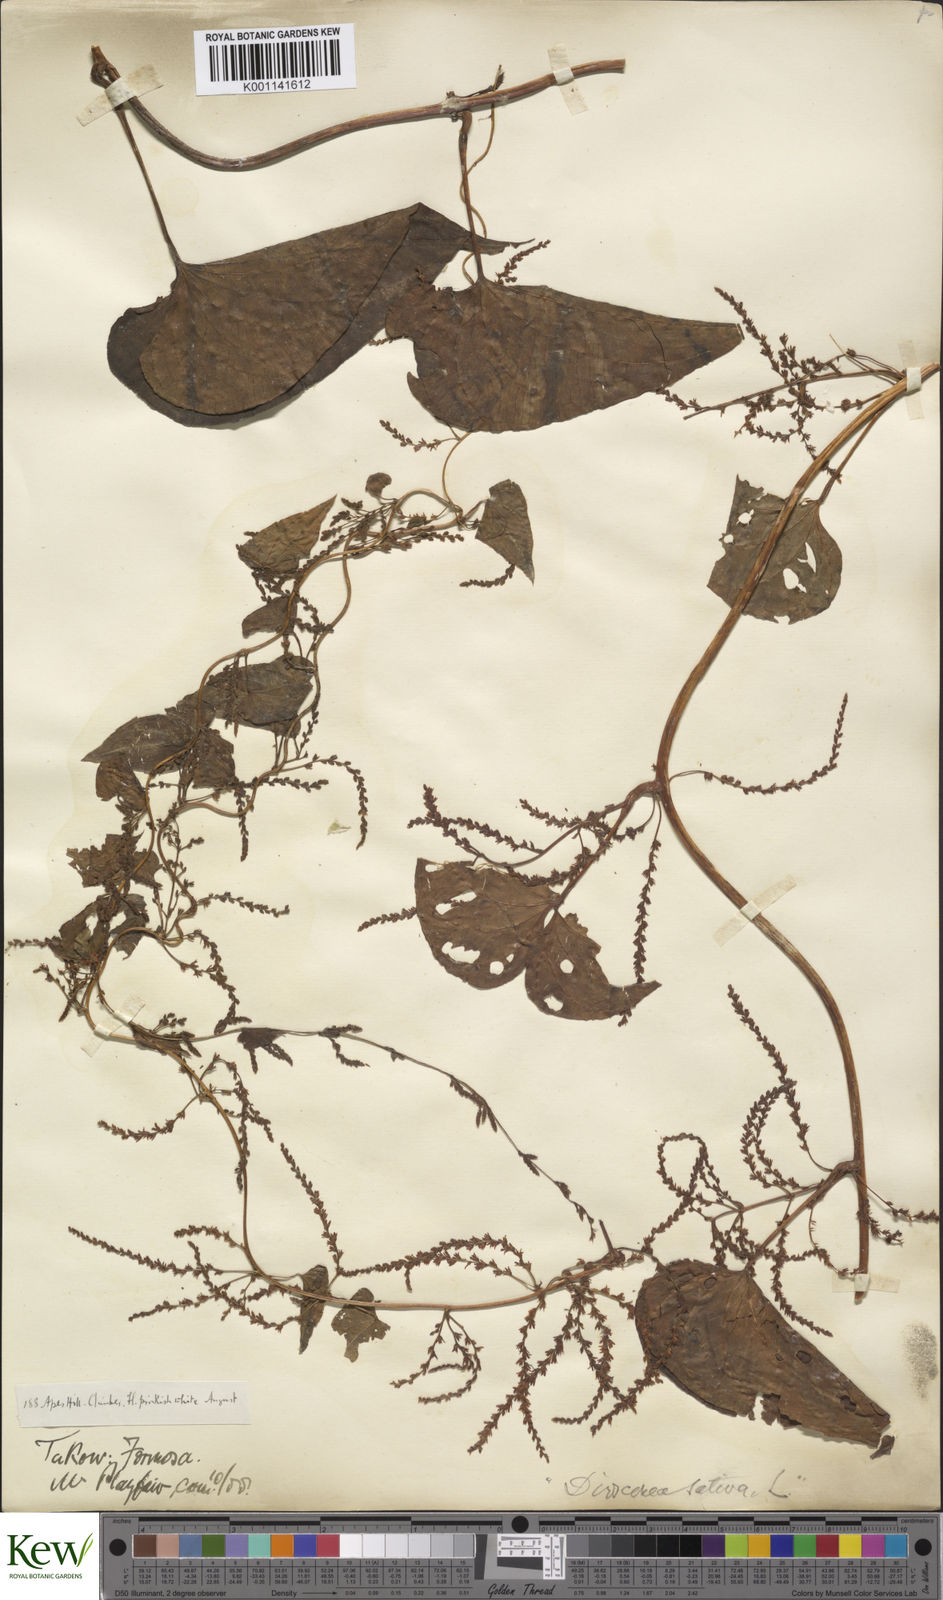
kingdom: Plantae
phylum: Tracheophyta
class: Liliopsida
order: Dioscoreales
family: Dioscoreaceae
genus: Dioscorea
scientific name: Dioscorea bulbifera
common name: Air yam
